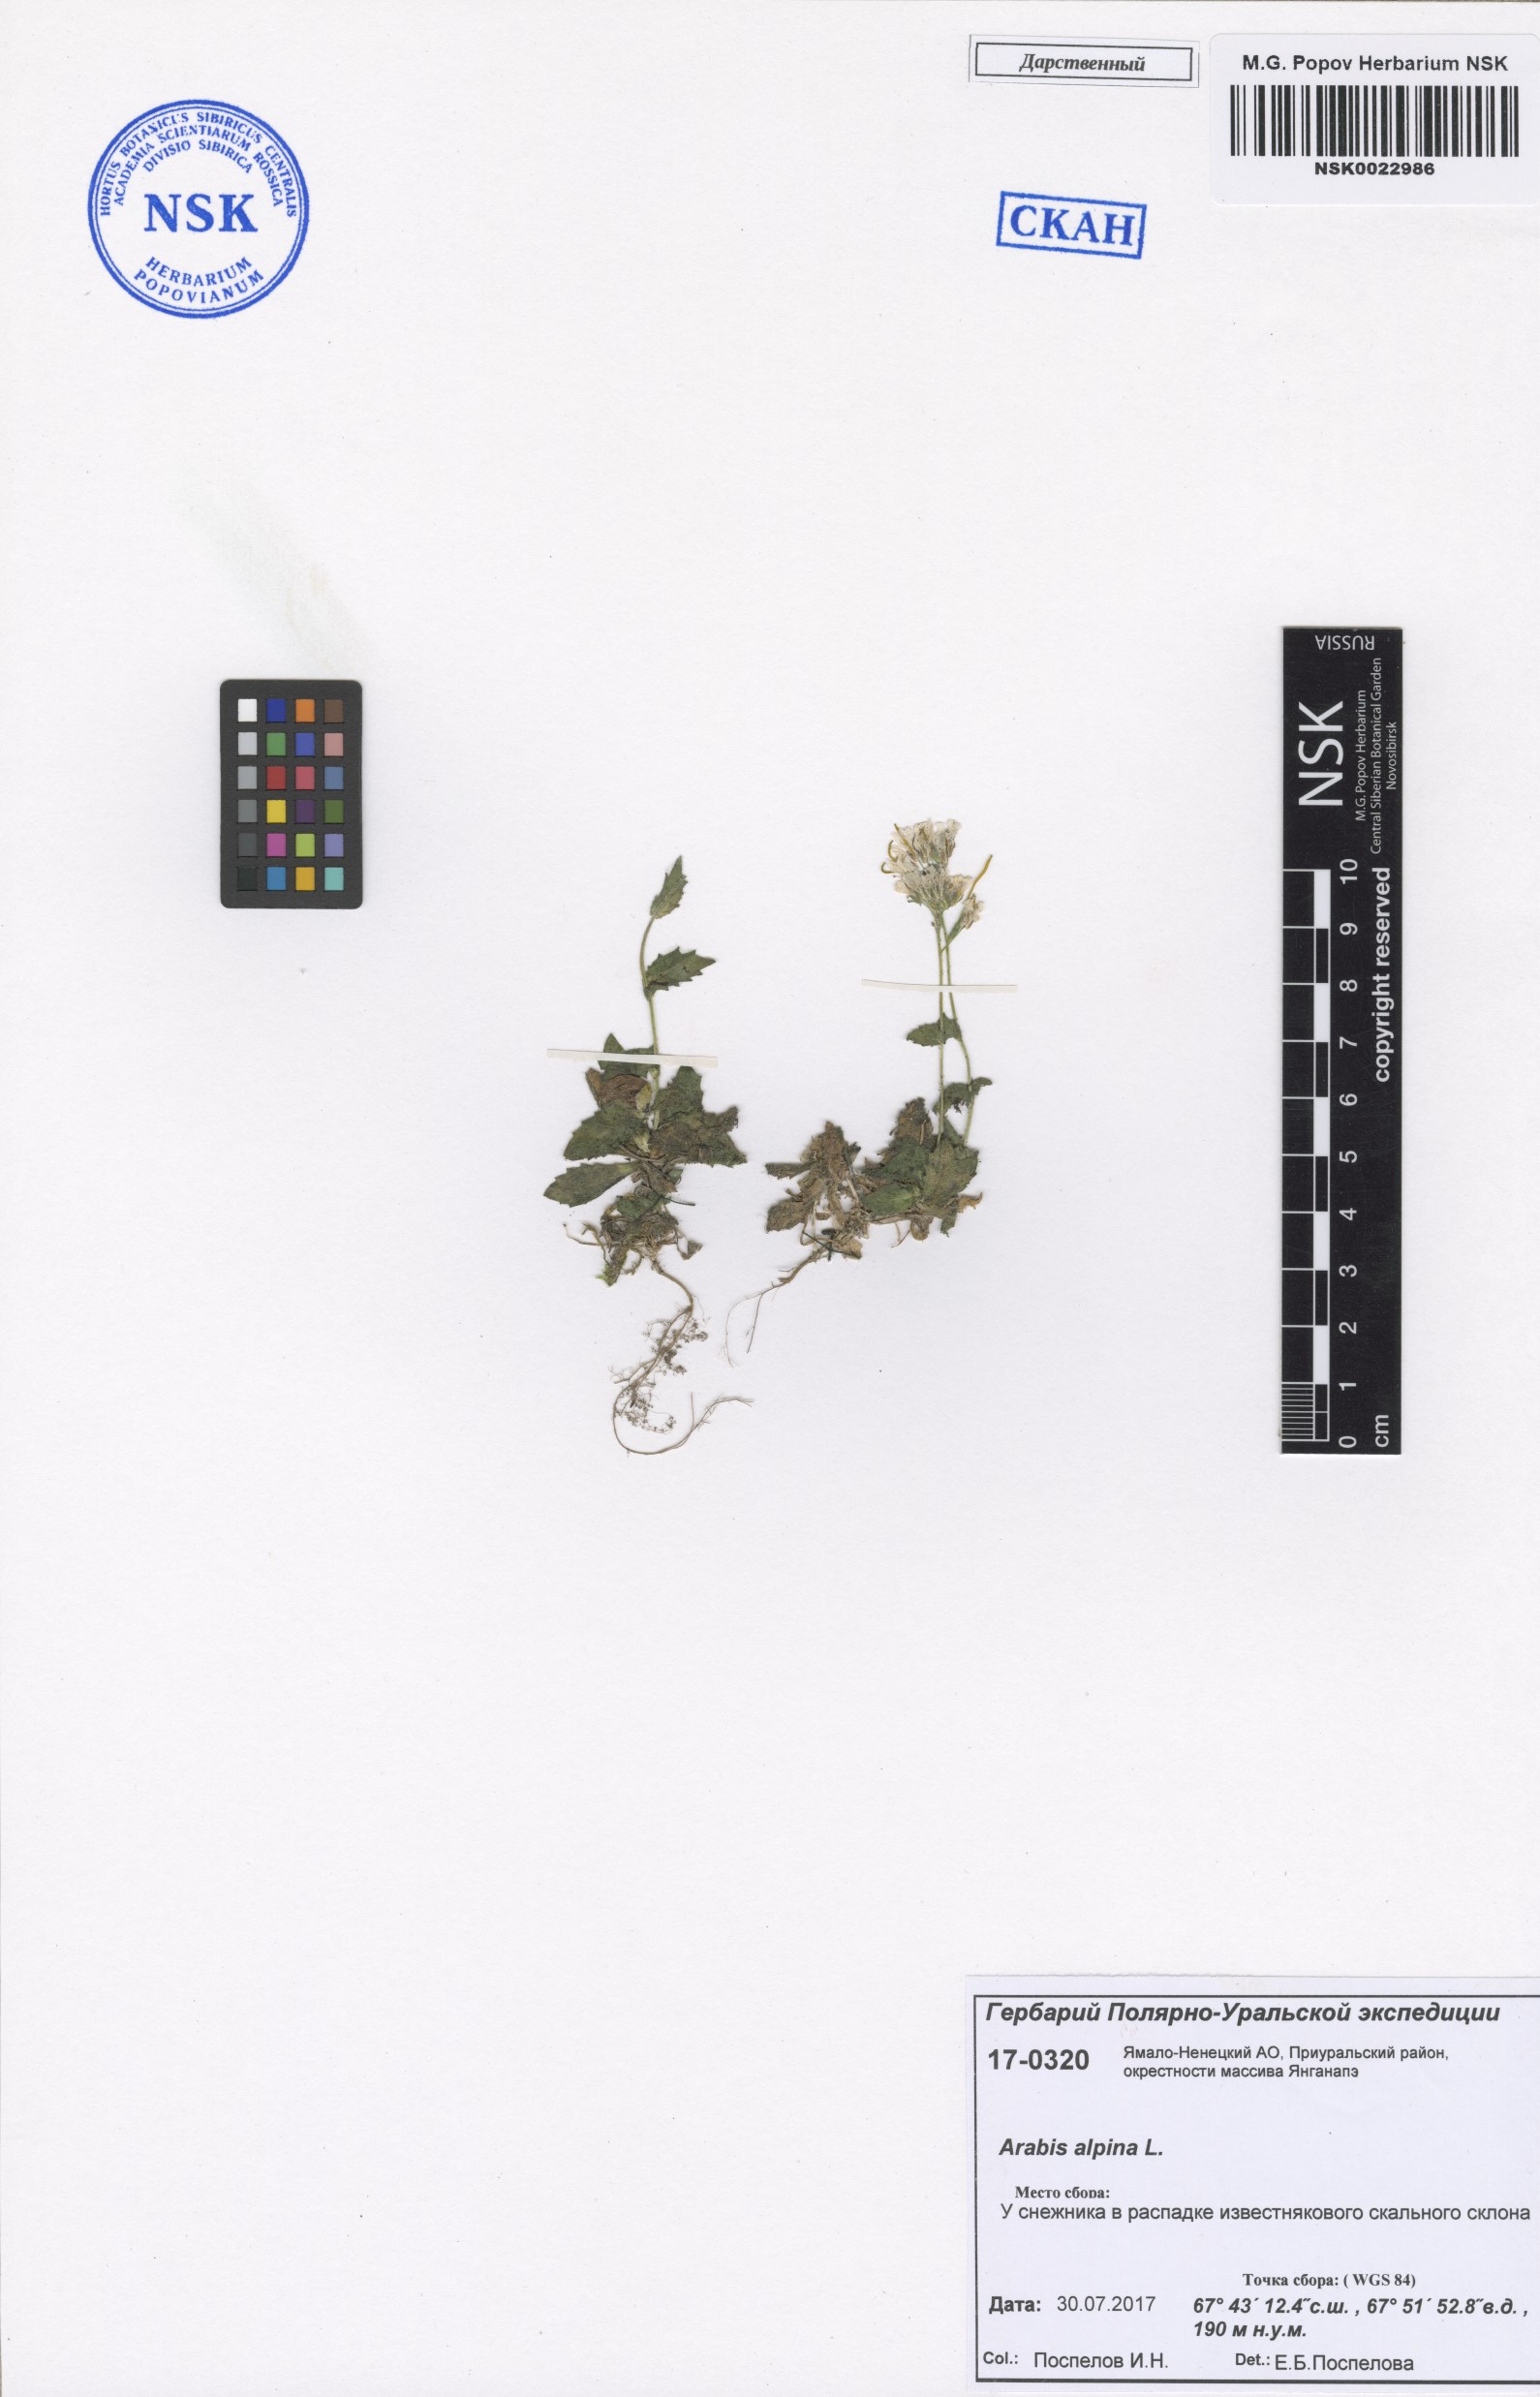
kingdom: Plantae
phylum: Tracheophyta
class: Magnoliopsida
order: Brassicales
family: Brassicaceae
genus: Arabis
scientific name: Arabis alpina
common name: Alpine rock-cress
